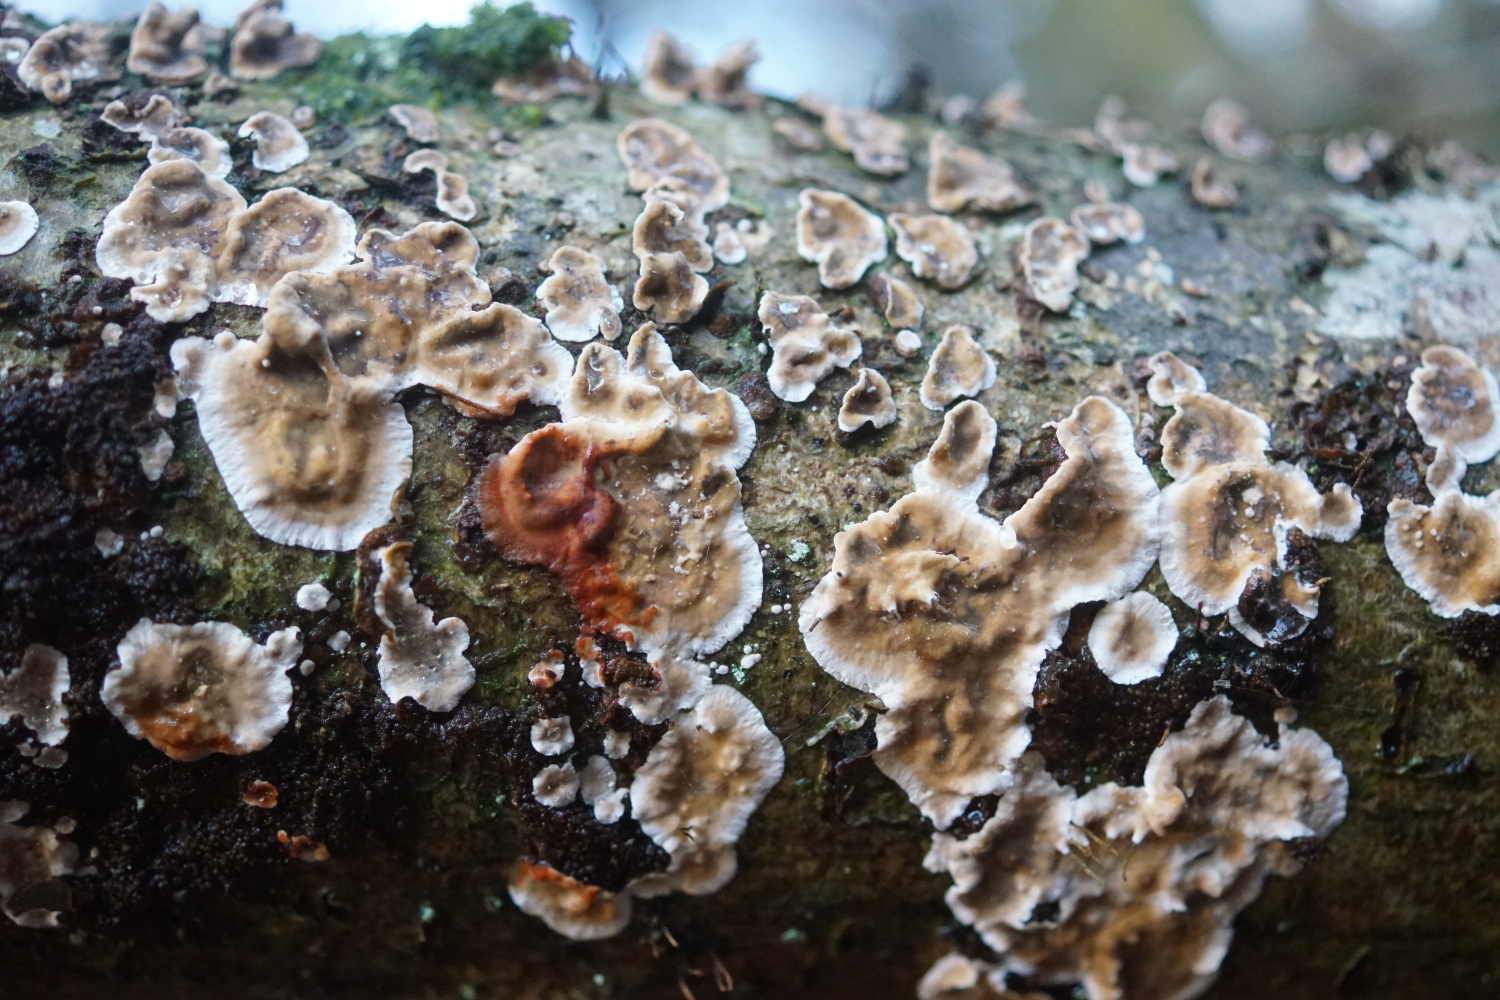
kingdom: Fungi
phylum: Basidiomycota
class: Agaricomycetes
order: Russulales
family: Stereaceae
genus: Stereum
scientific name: Stereum rugosum
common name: rynket lædersvamp
